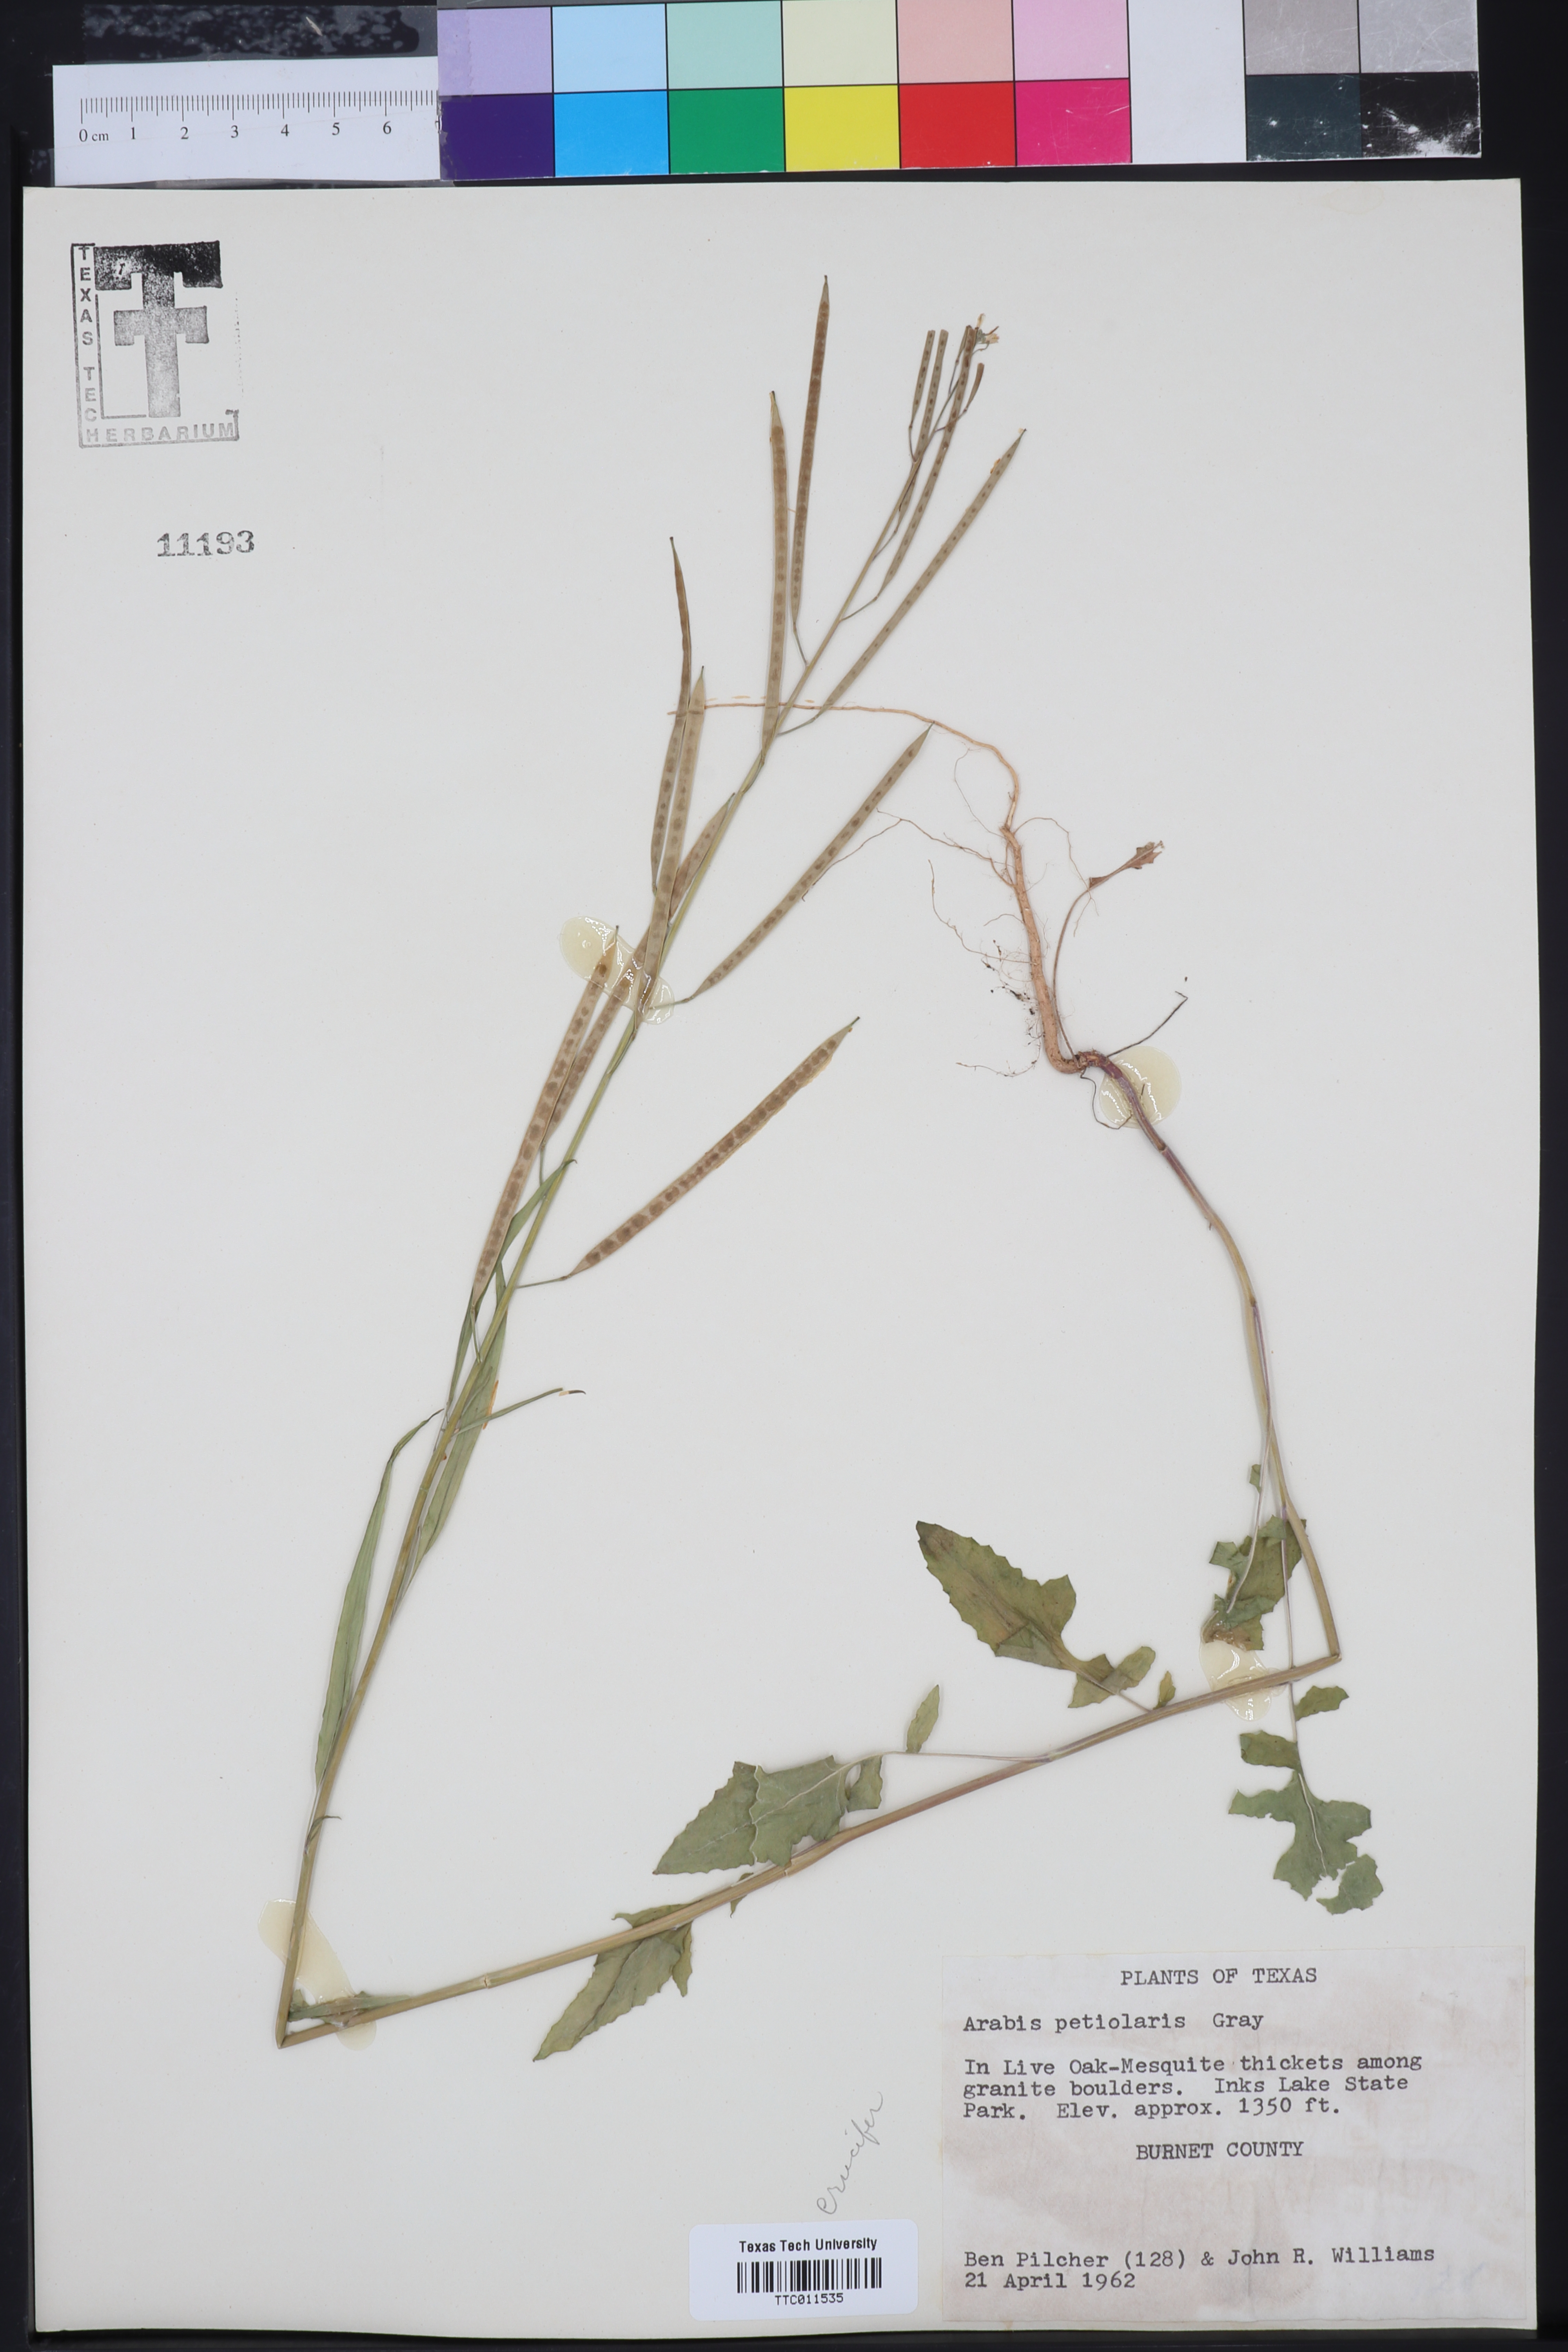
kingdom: Plantae
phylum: Tracheophyta
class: Magnoliopsida
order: Brassicales
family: Brassicaceae
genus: Streptanthus
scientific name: Streptanthus petiolaris
